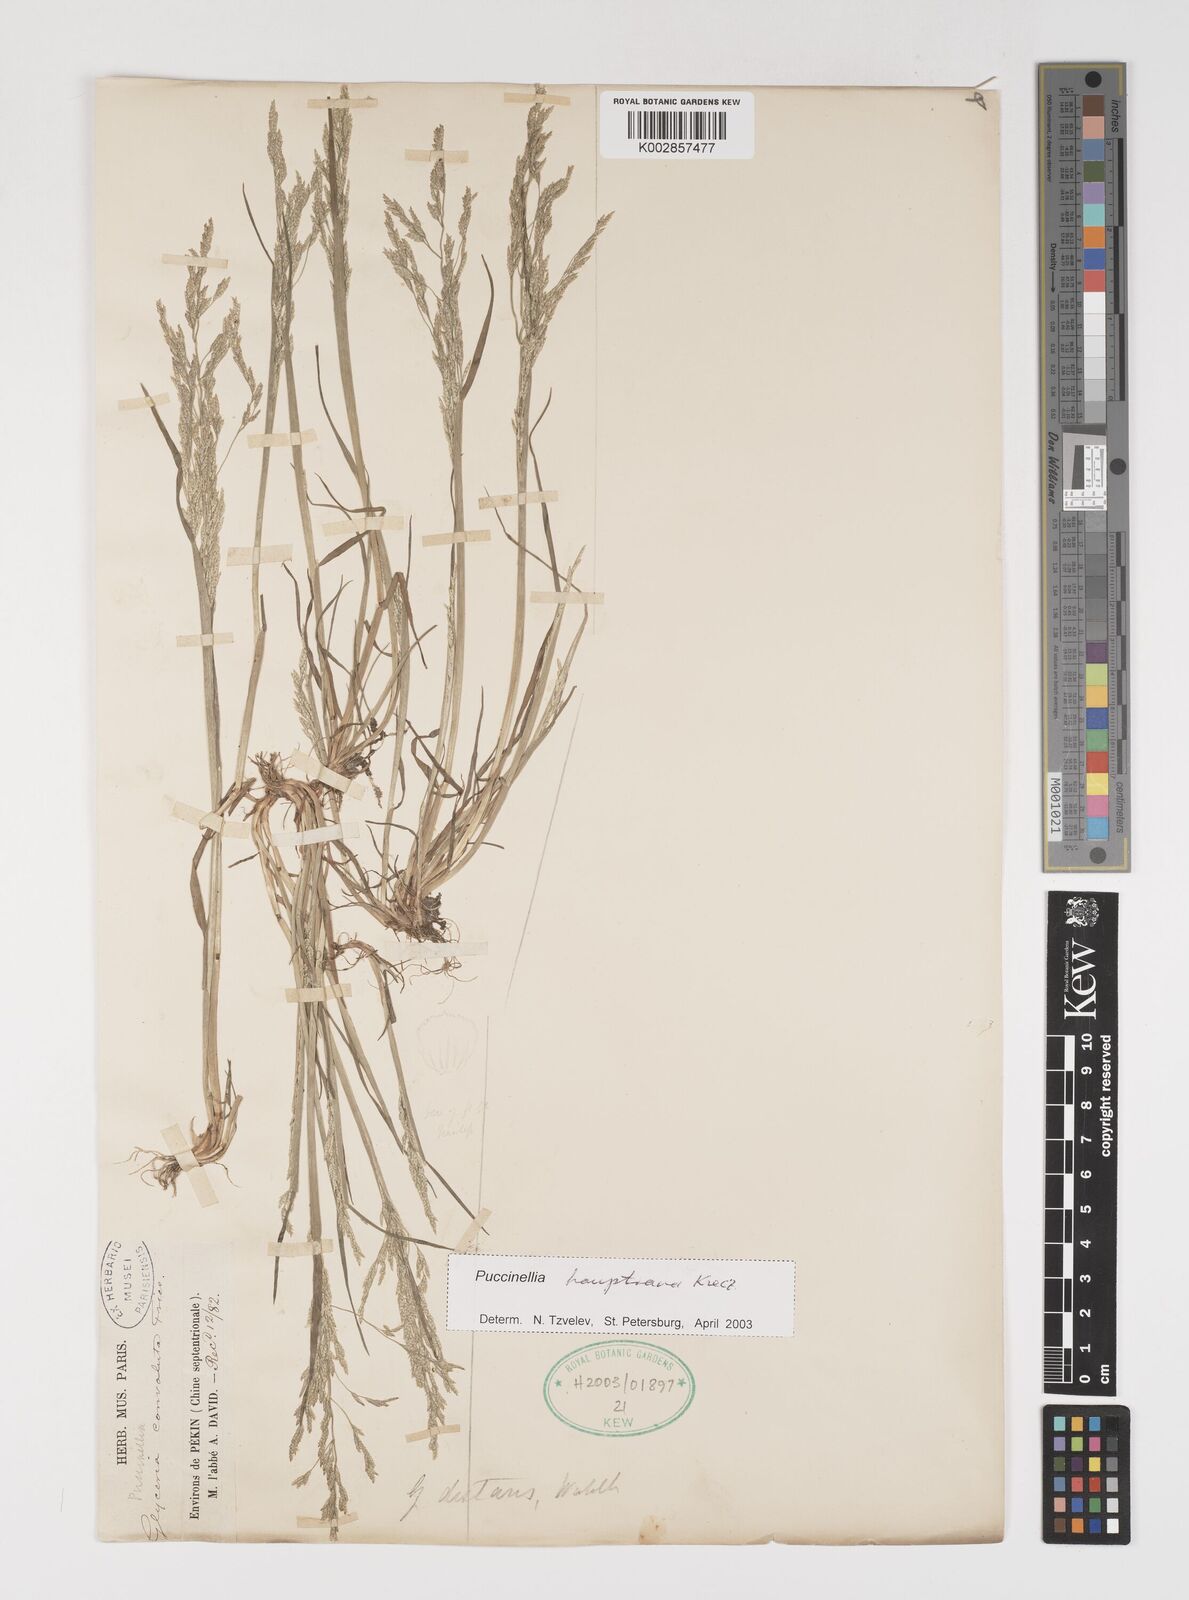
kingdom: Plantae
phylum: Tracheophyta
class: Liliopsida
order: Poales
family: Poaceae
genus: Puccinellia
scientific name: Puccinellia distans
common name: Weeping alkaligrass
